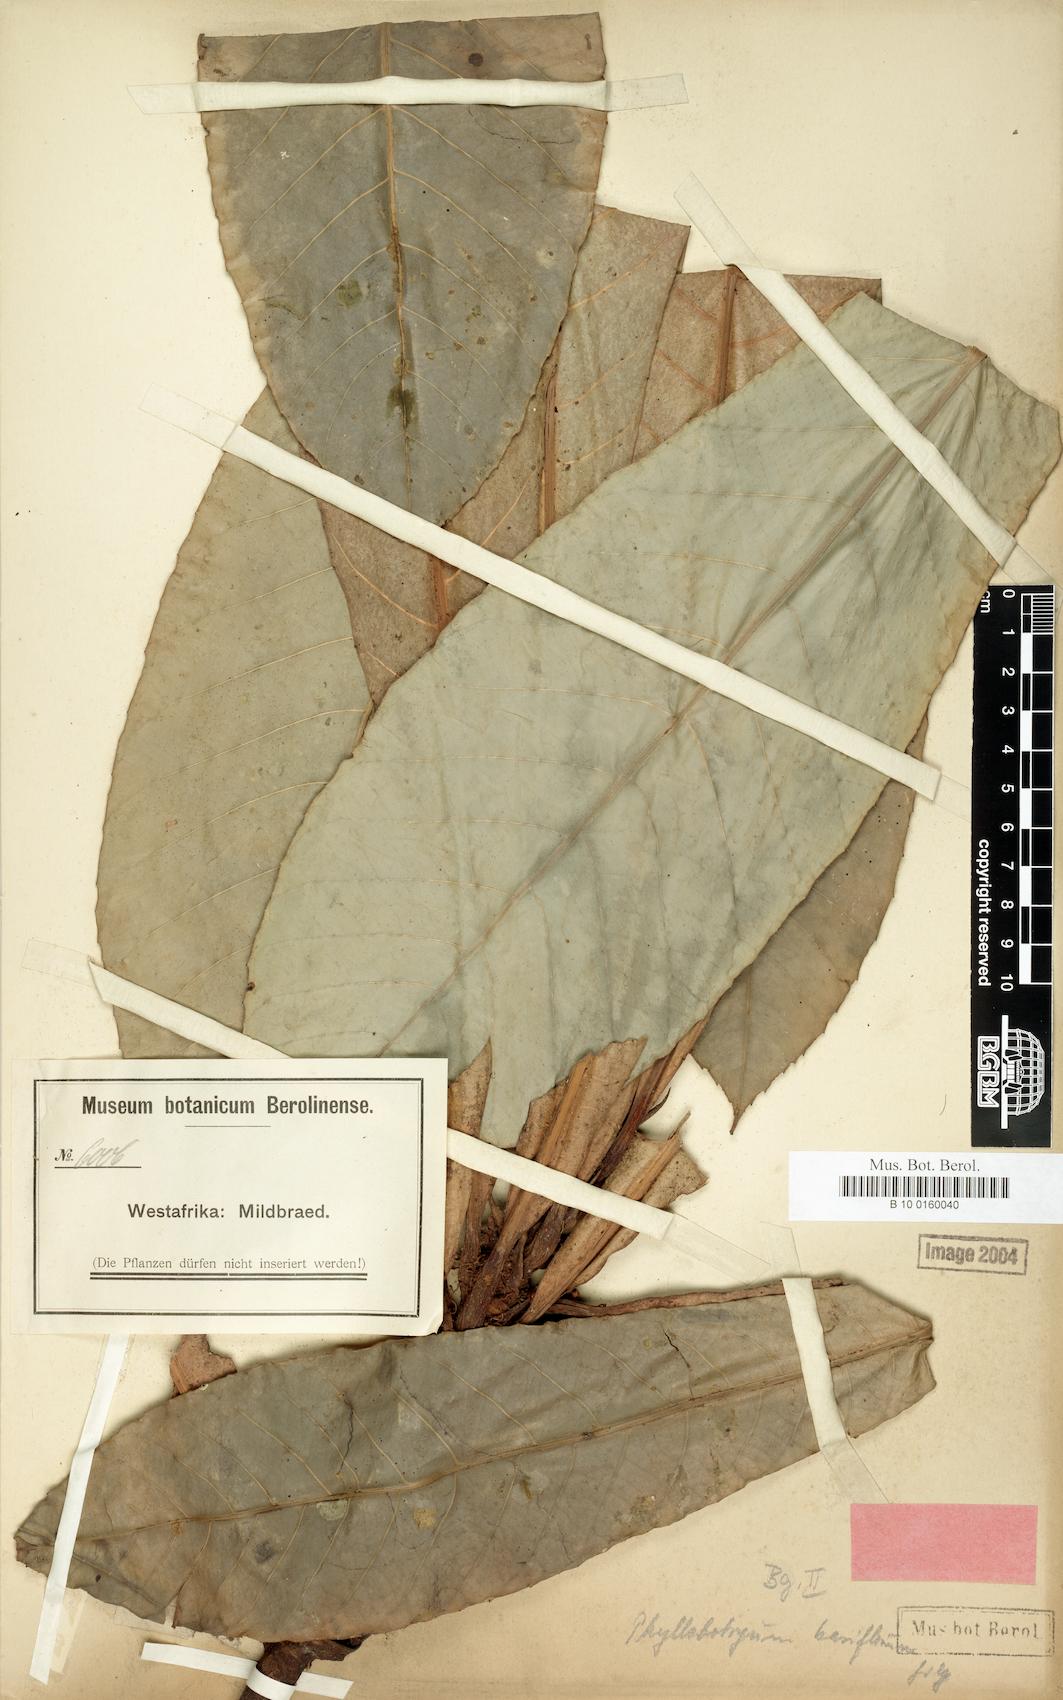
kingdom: Plantae
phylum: Tracheophyta
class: Magnoliopsida
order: Malpighiales
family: Salicaceae
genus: Phyllobotryon
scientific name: Phyllobotryon spathulatum
